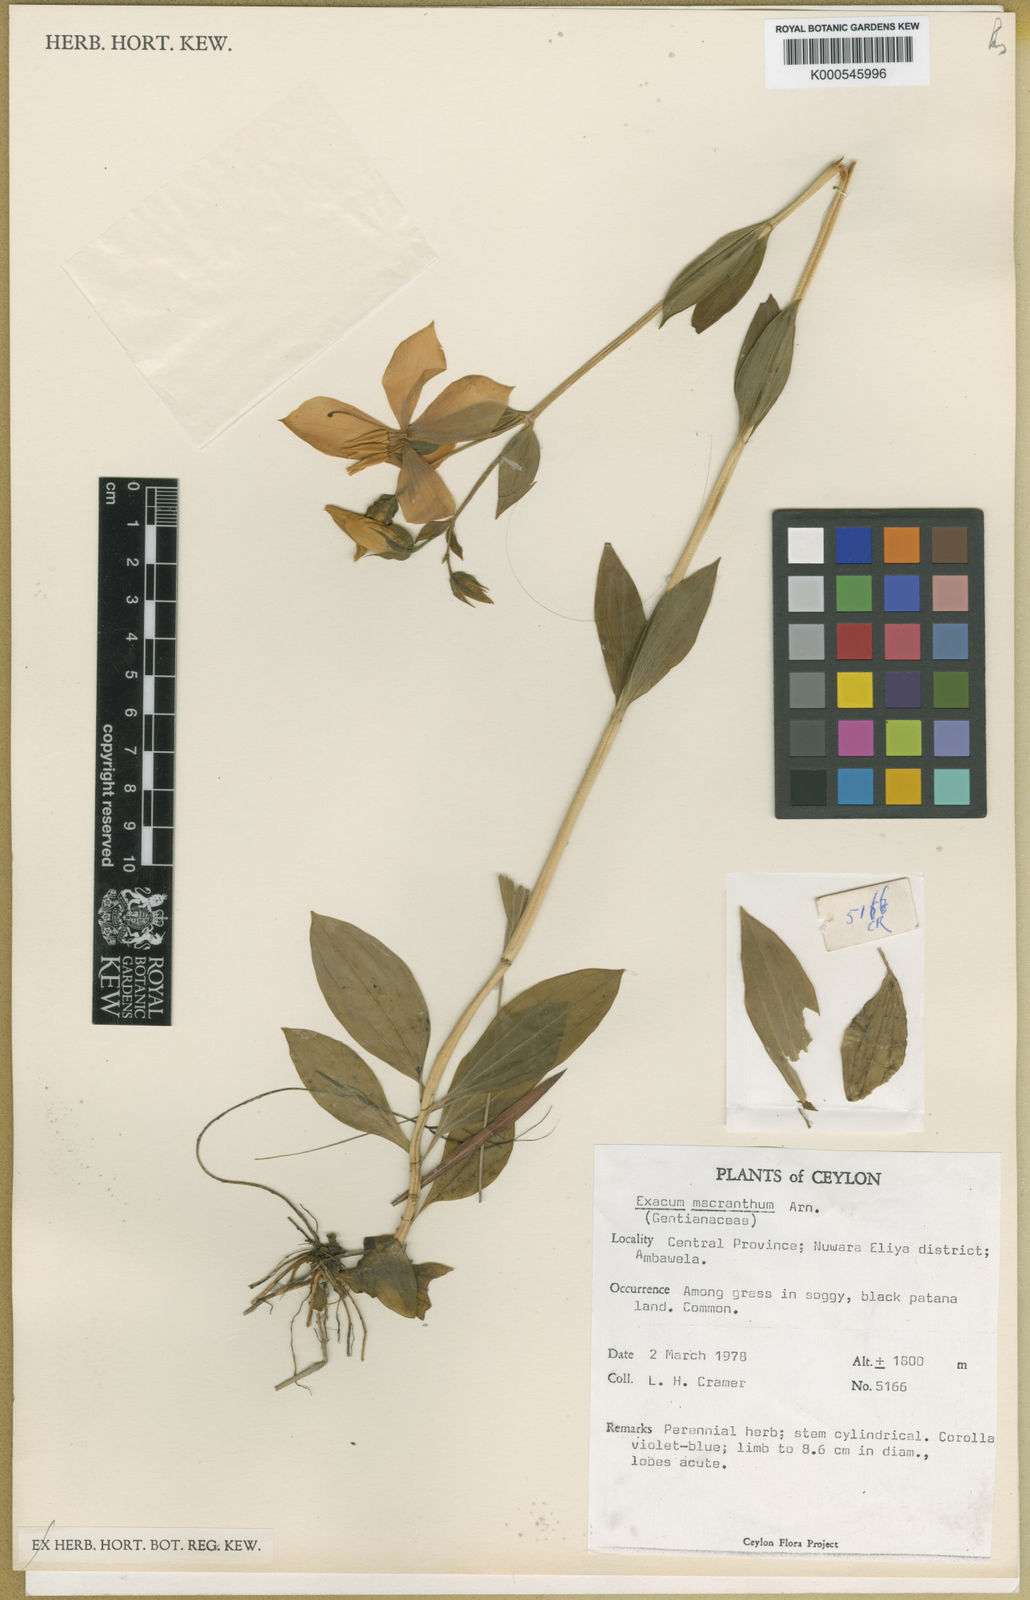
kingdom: Plantae
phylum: Tracheophyta
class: Magnoliopsida
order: Gentianales
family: Gentianaceae
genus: Exacum
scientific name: Exacum
